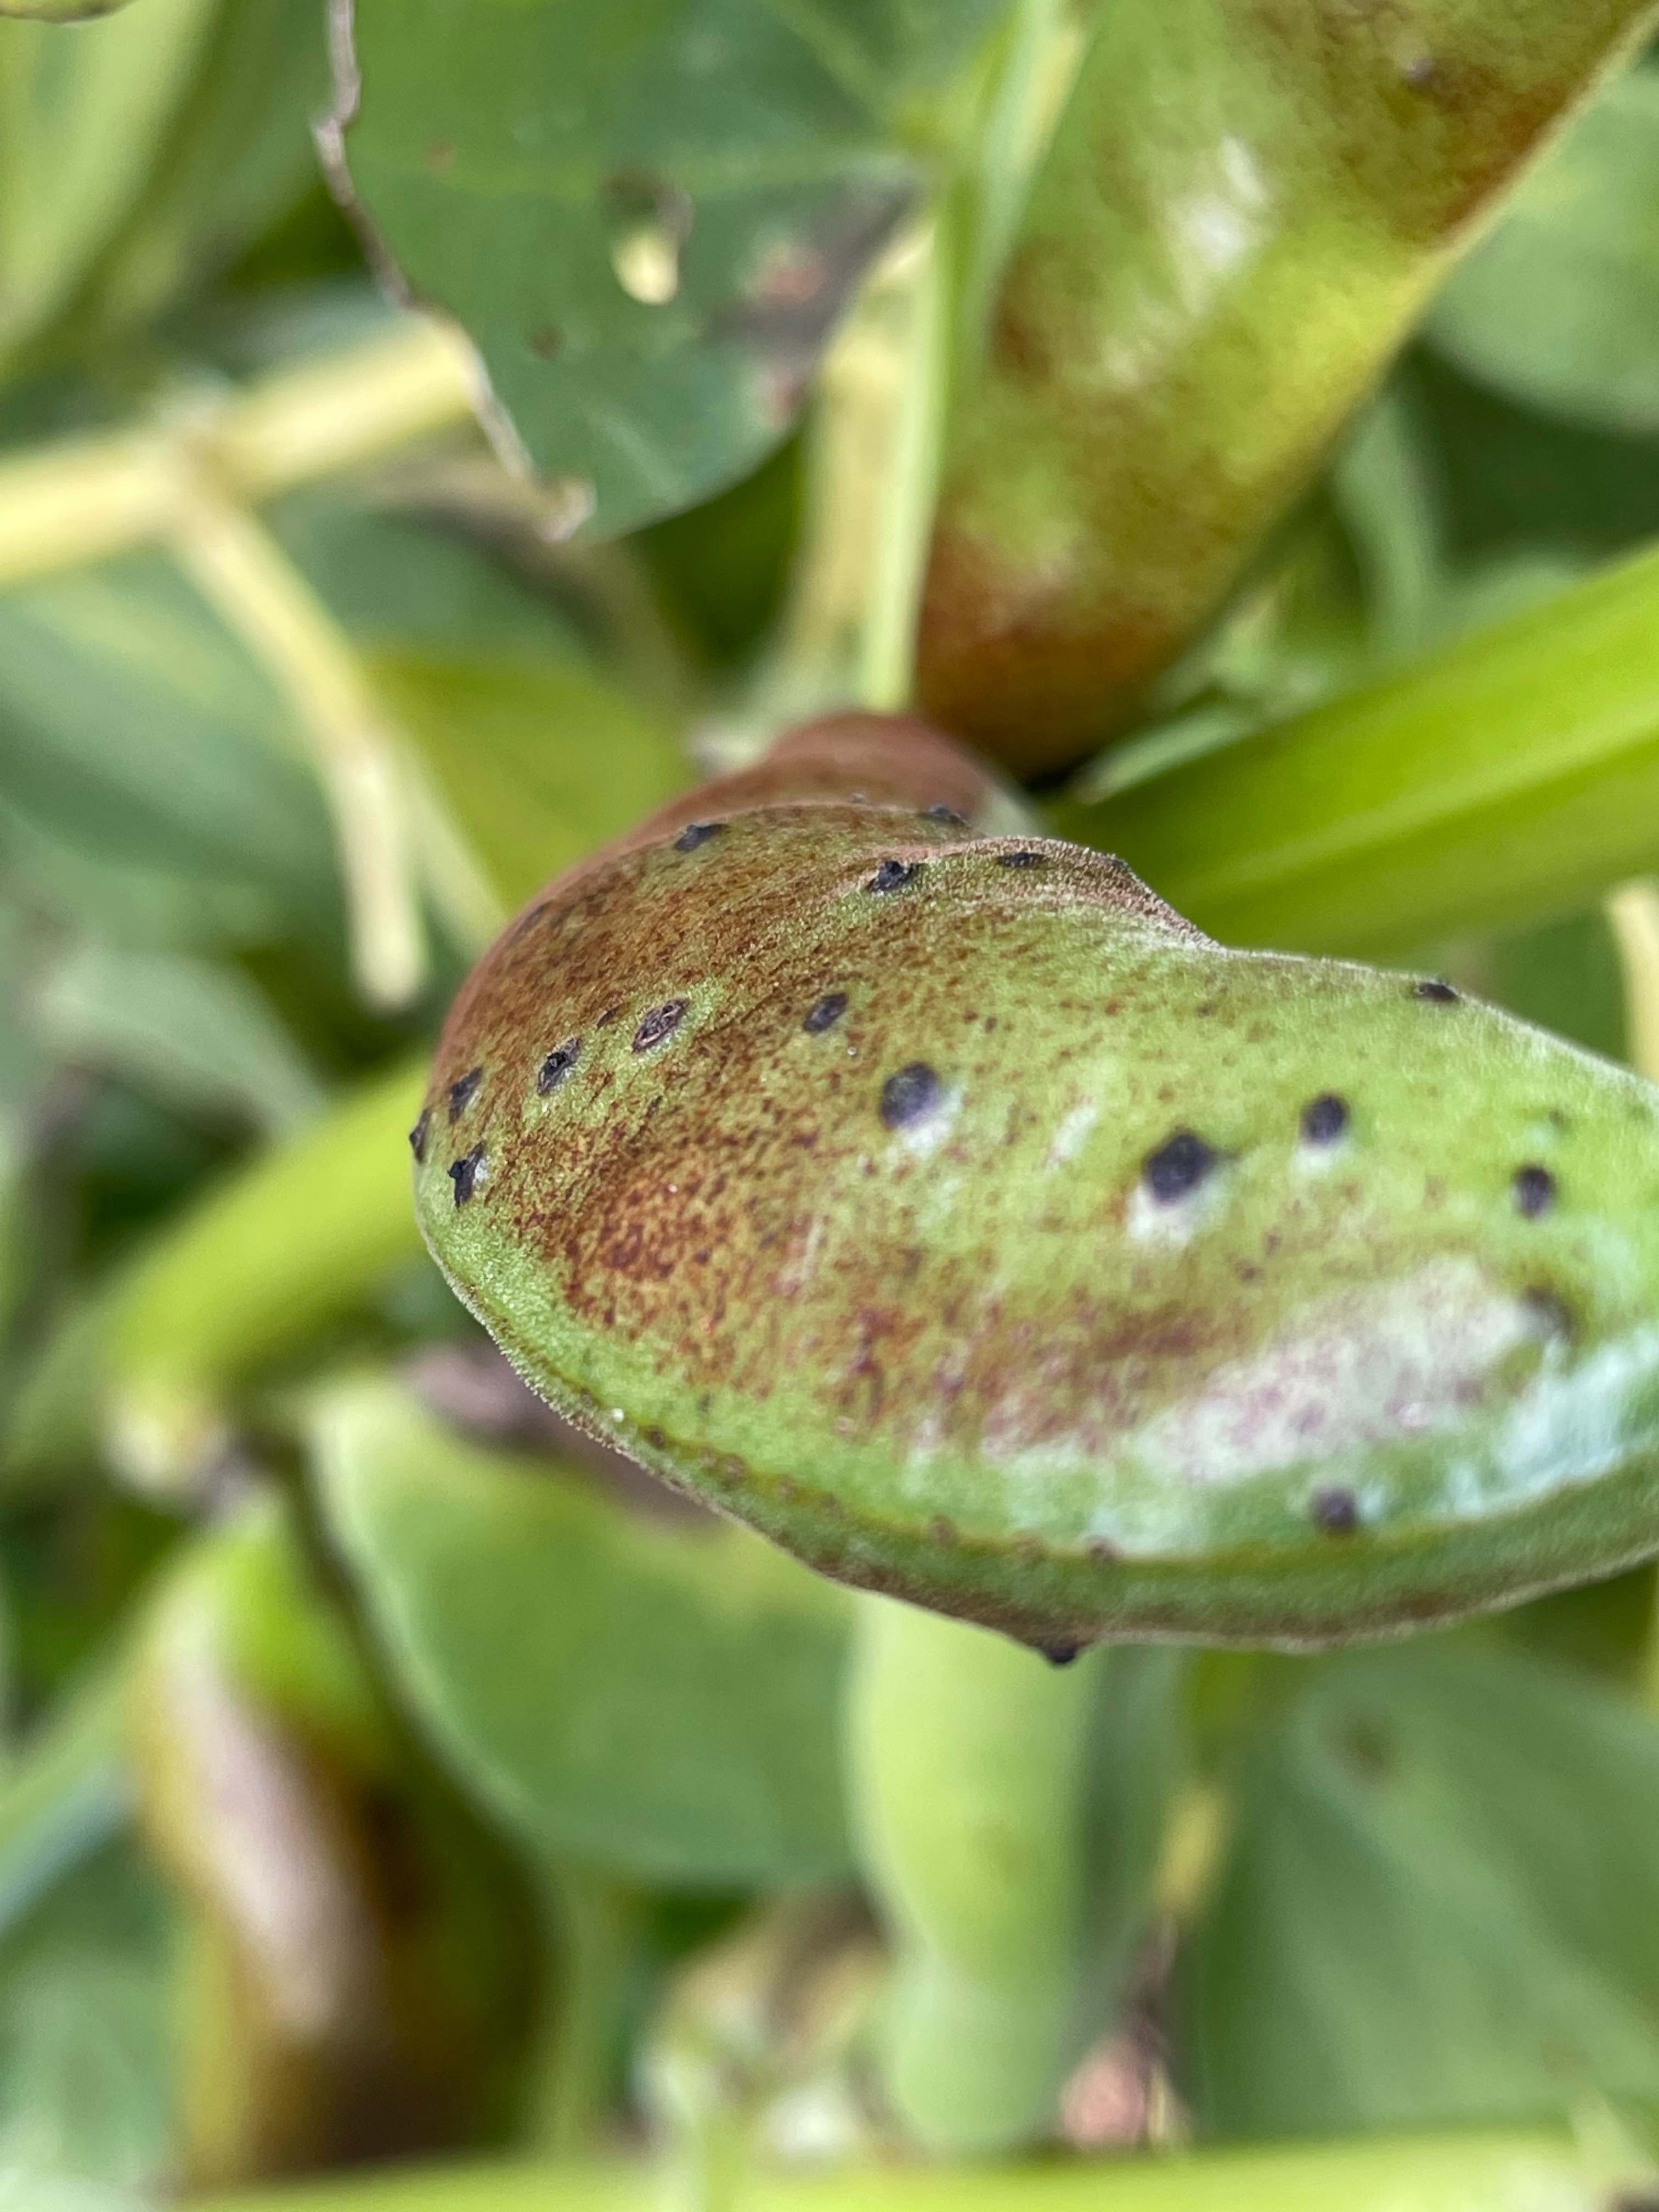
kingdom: Fungi
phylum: Ascomycota
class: Dothideomycetes
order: Pleosporales
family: Didymellaceae
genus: Didymella
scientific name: Didymella fabae
